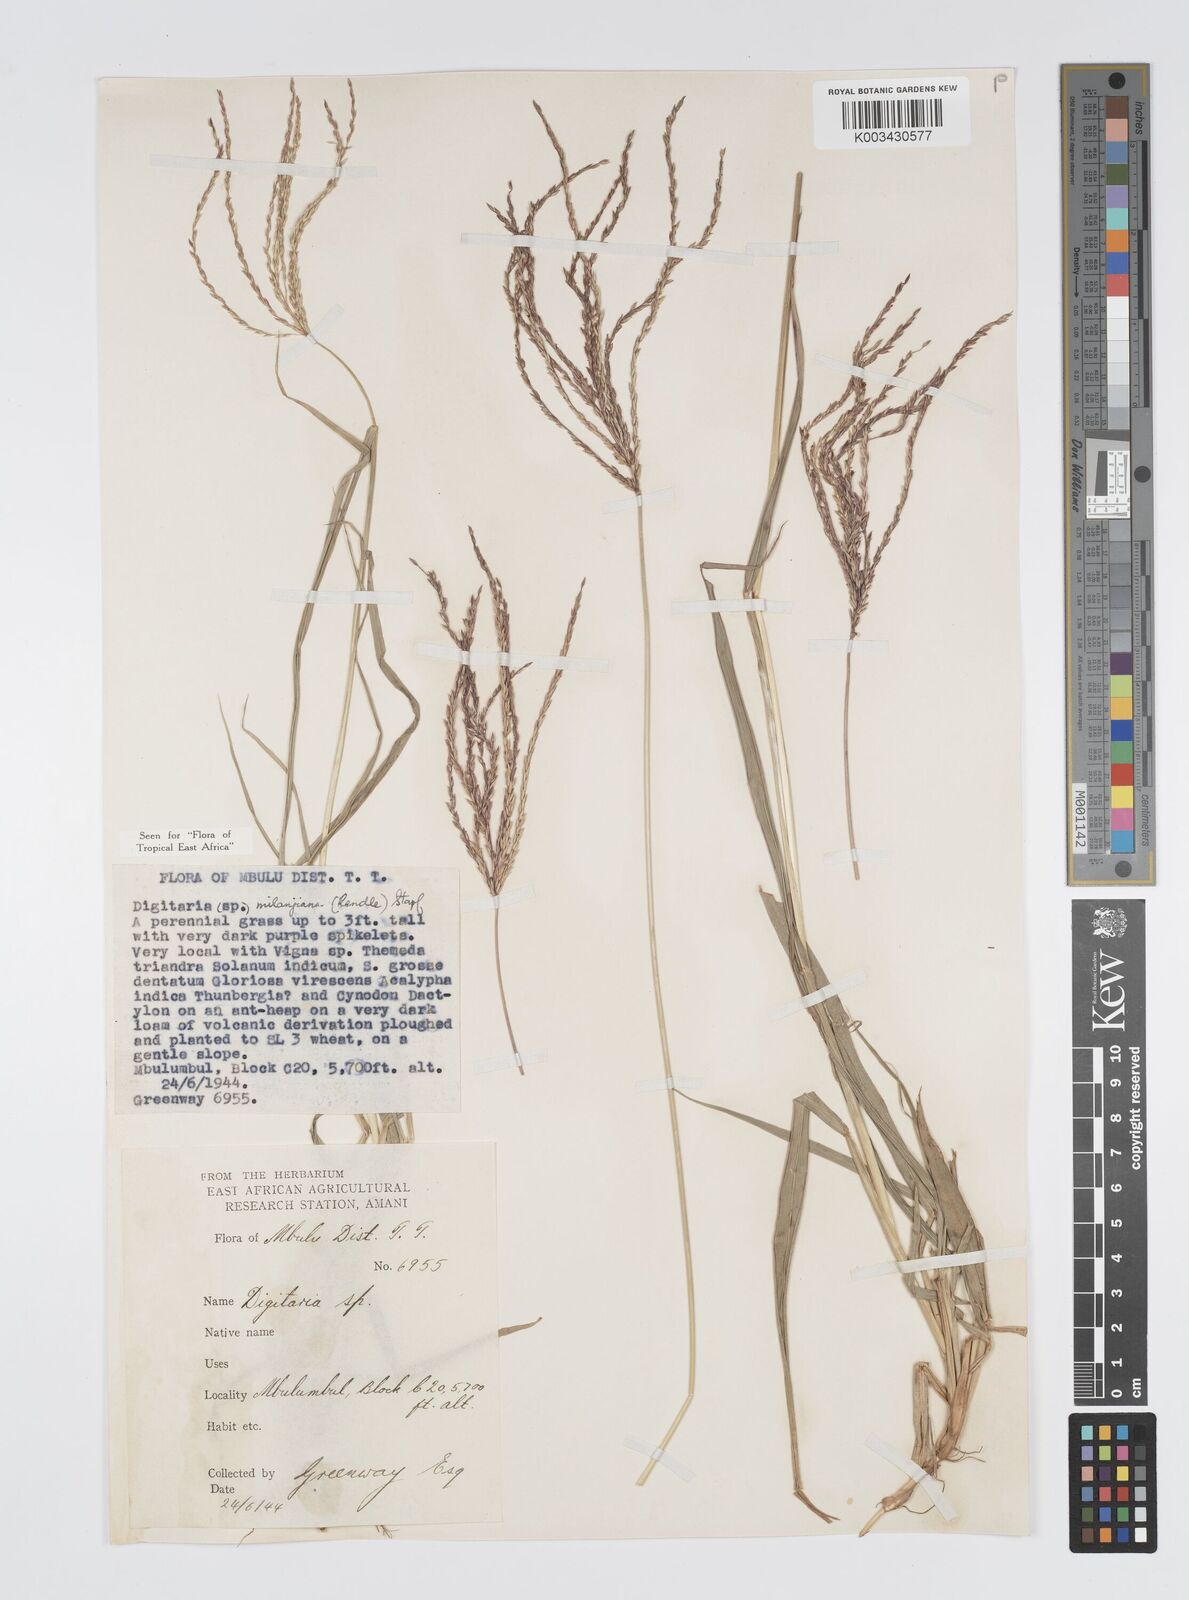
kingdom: Plantae
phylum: Tracheophyta
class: Liliopsida
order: Poales
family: Poaceae
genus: Digitaria
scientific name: Digitaria milanjiana
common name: Madagascar crabgrass
